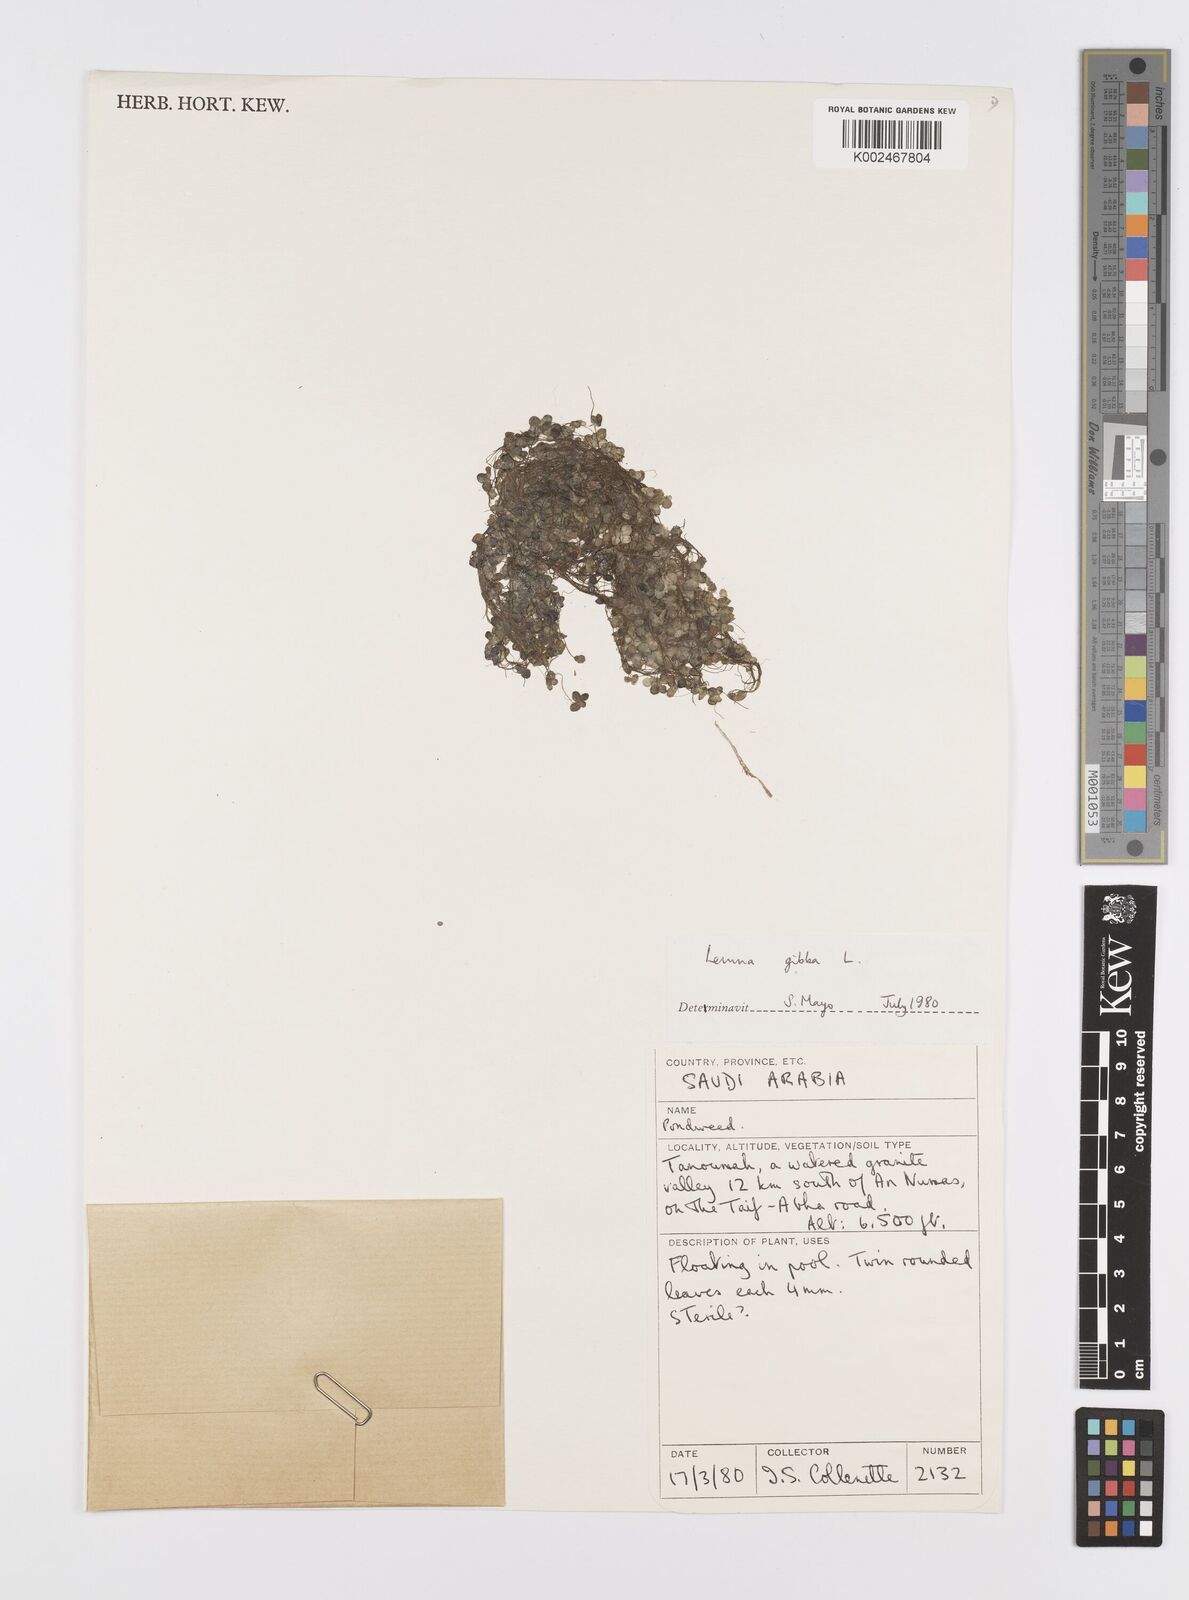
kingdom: Plantae
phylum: Tracheophyta
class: Liliopsida
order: Alismatales
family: Araceae
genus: Lemna
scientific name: Lemna gibba
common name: Fat duckweed
